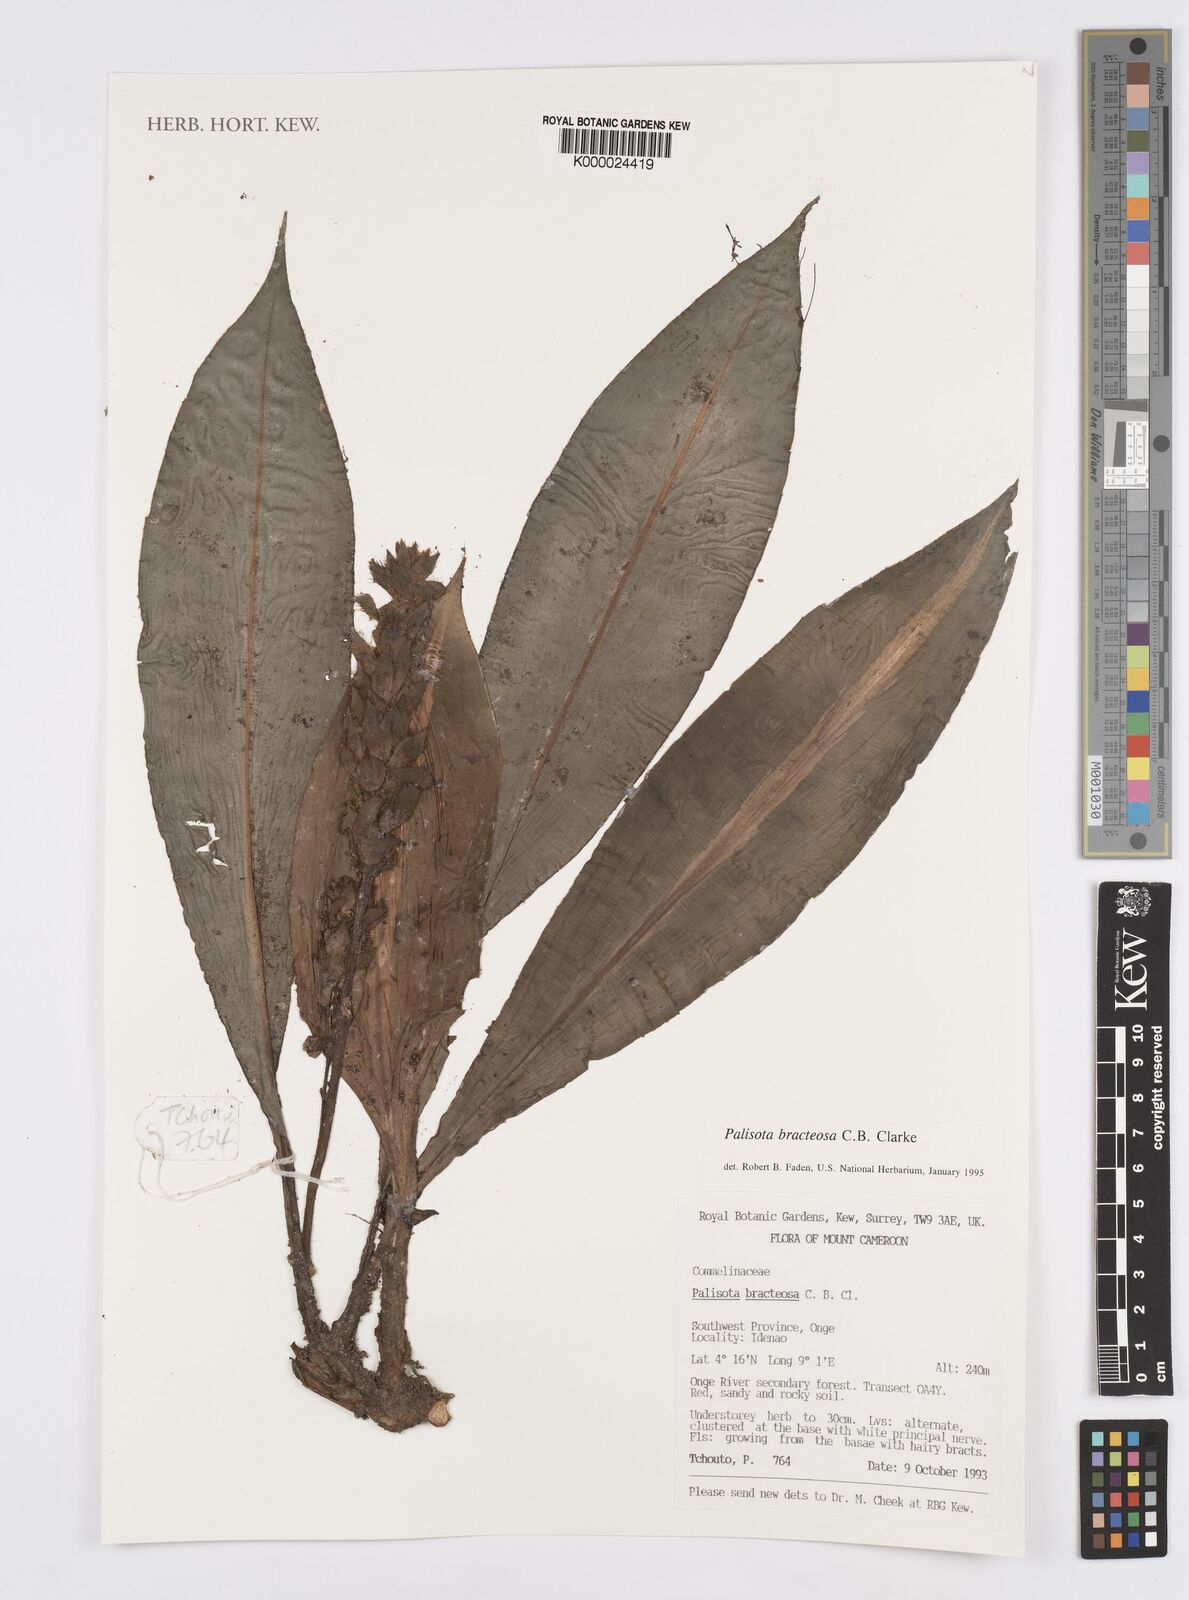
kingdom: Plantae
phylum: Tracheophyta
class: Liliopsida
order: Commelinales
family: Commelinaceae
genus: Palisota
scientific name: Palisota bracteosa
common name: Palisota
